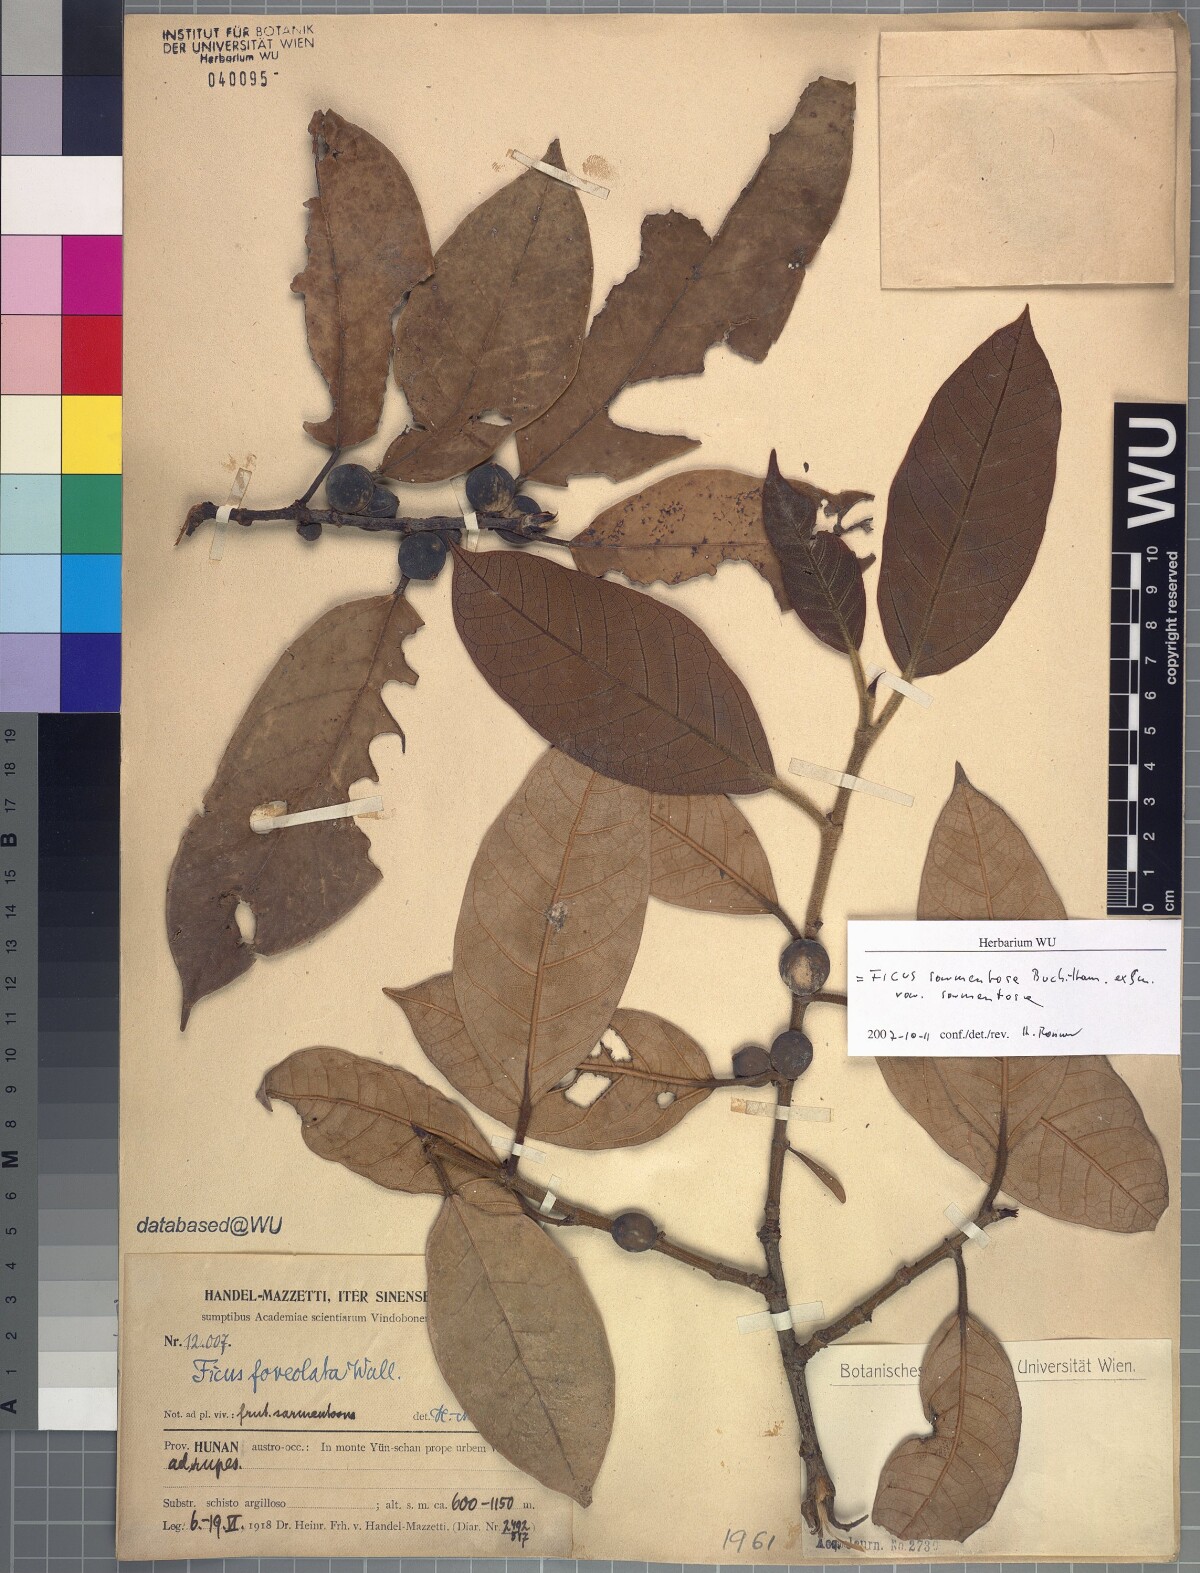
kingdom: Plantae
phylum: Tracheophyta
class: Magnoliopsida
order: Rosales
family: Moraceae
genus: Ficus
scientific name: Ficus sarmentosa
